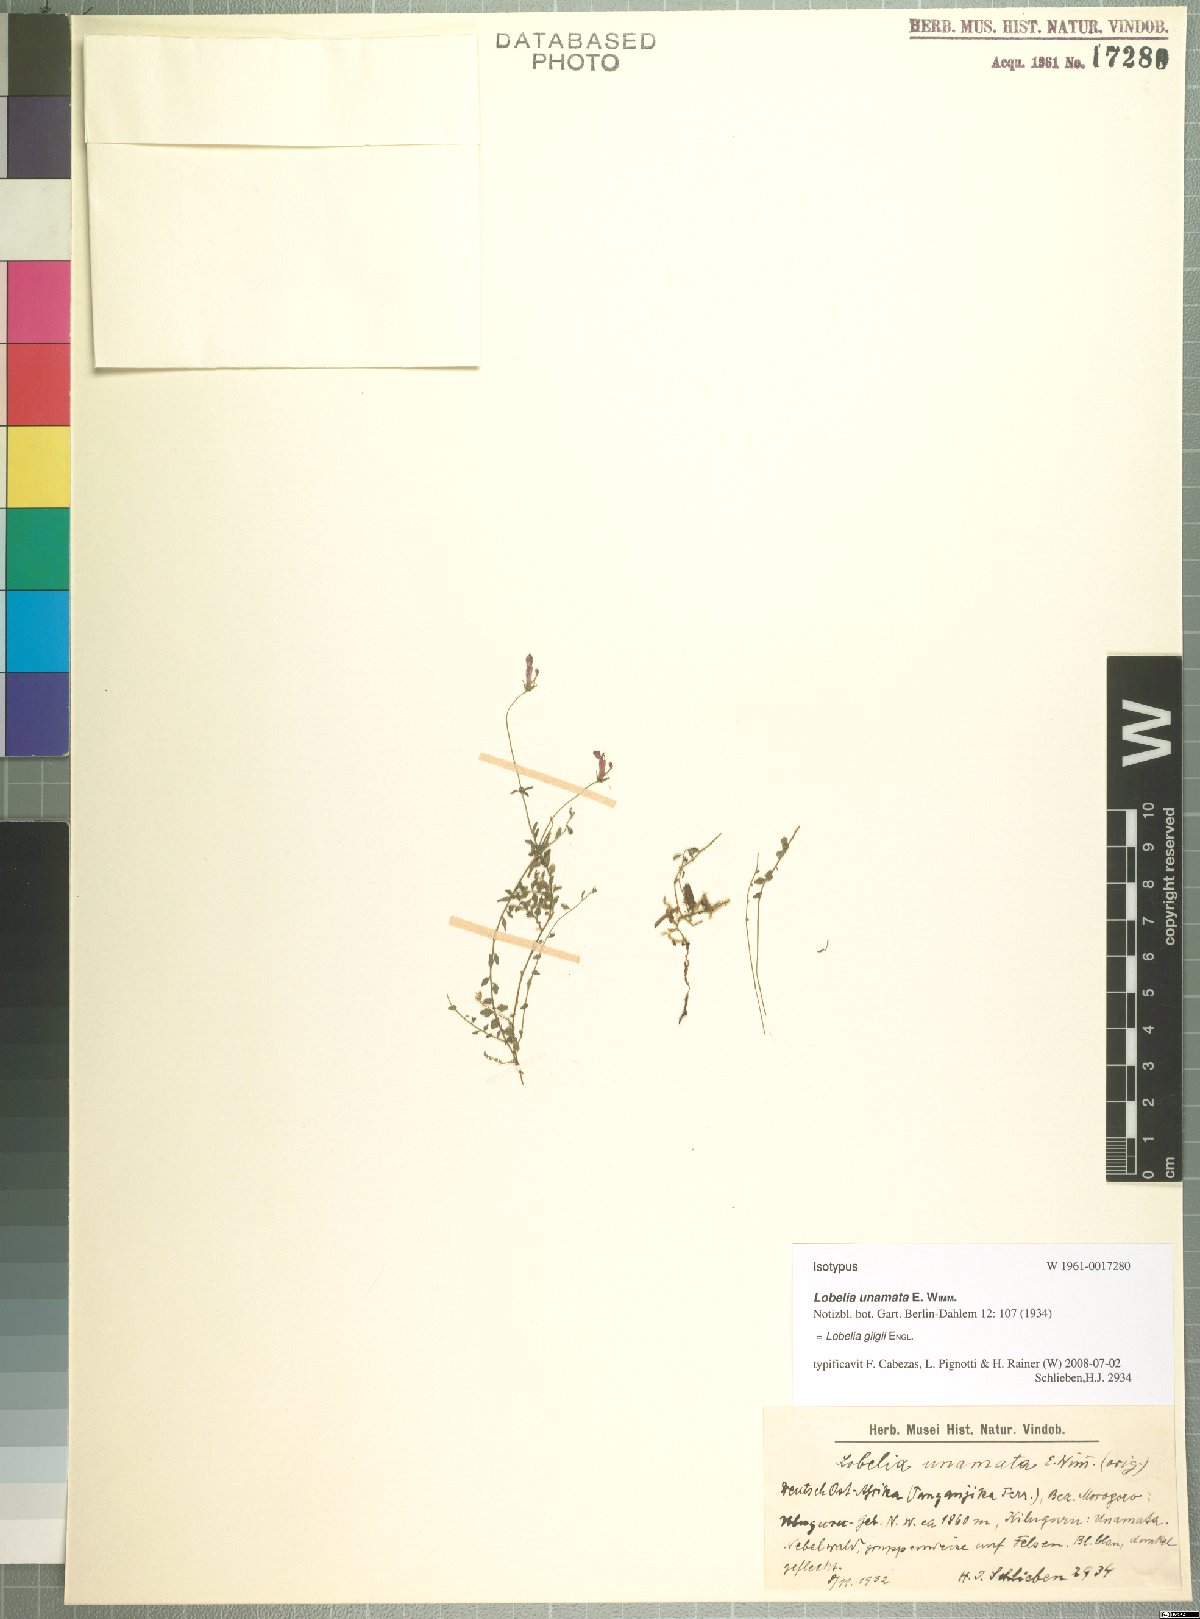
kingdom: Plantae
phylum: Tracheophyta
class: Magnoliopsida
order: Asterales
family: Campanulaceae
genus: Lobelia
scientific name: Lobelia gilgii
